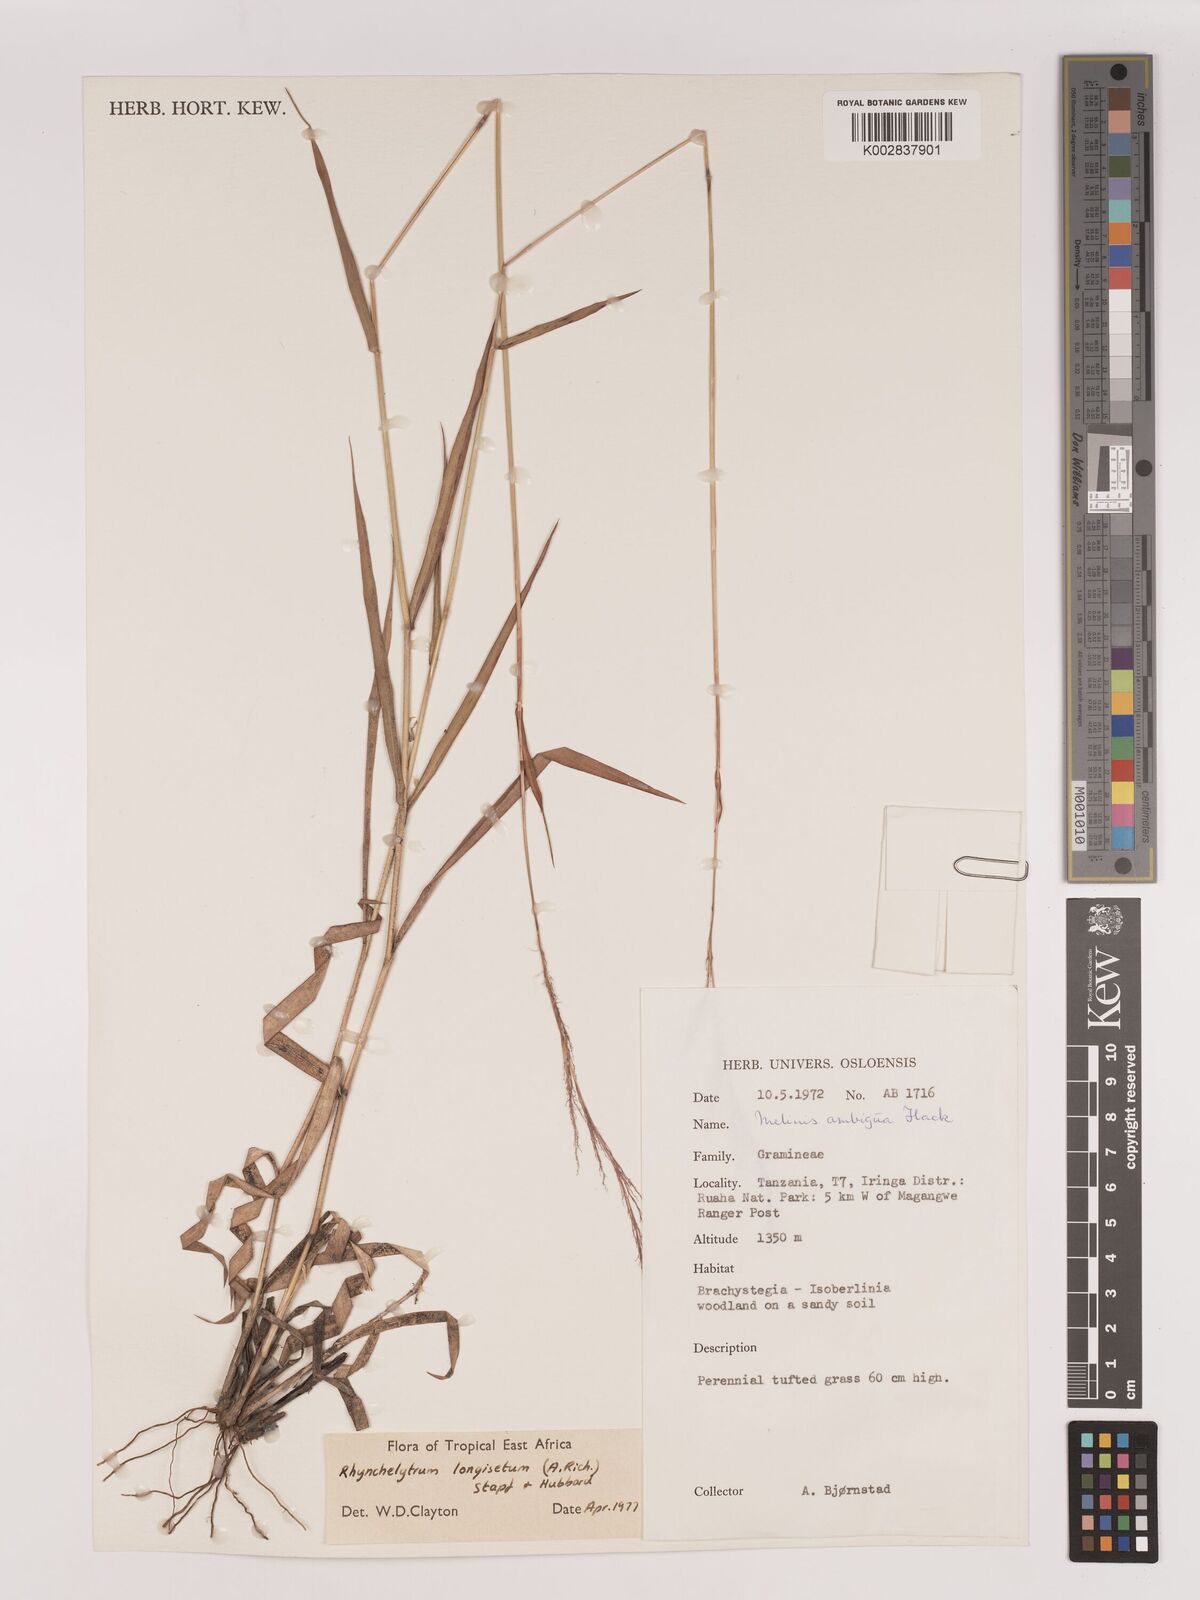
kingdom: Plantae
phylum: Tracheophyta
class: Liliopsida
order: Poales
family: Poaceae
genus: Melinis
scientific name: Melinis longiseta
